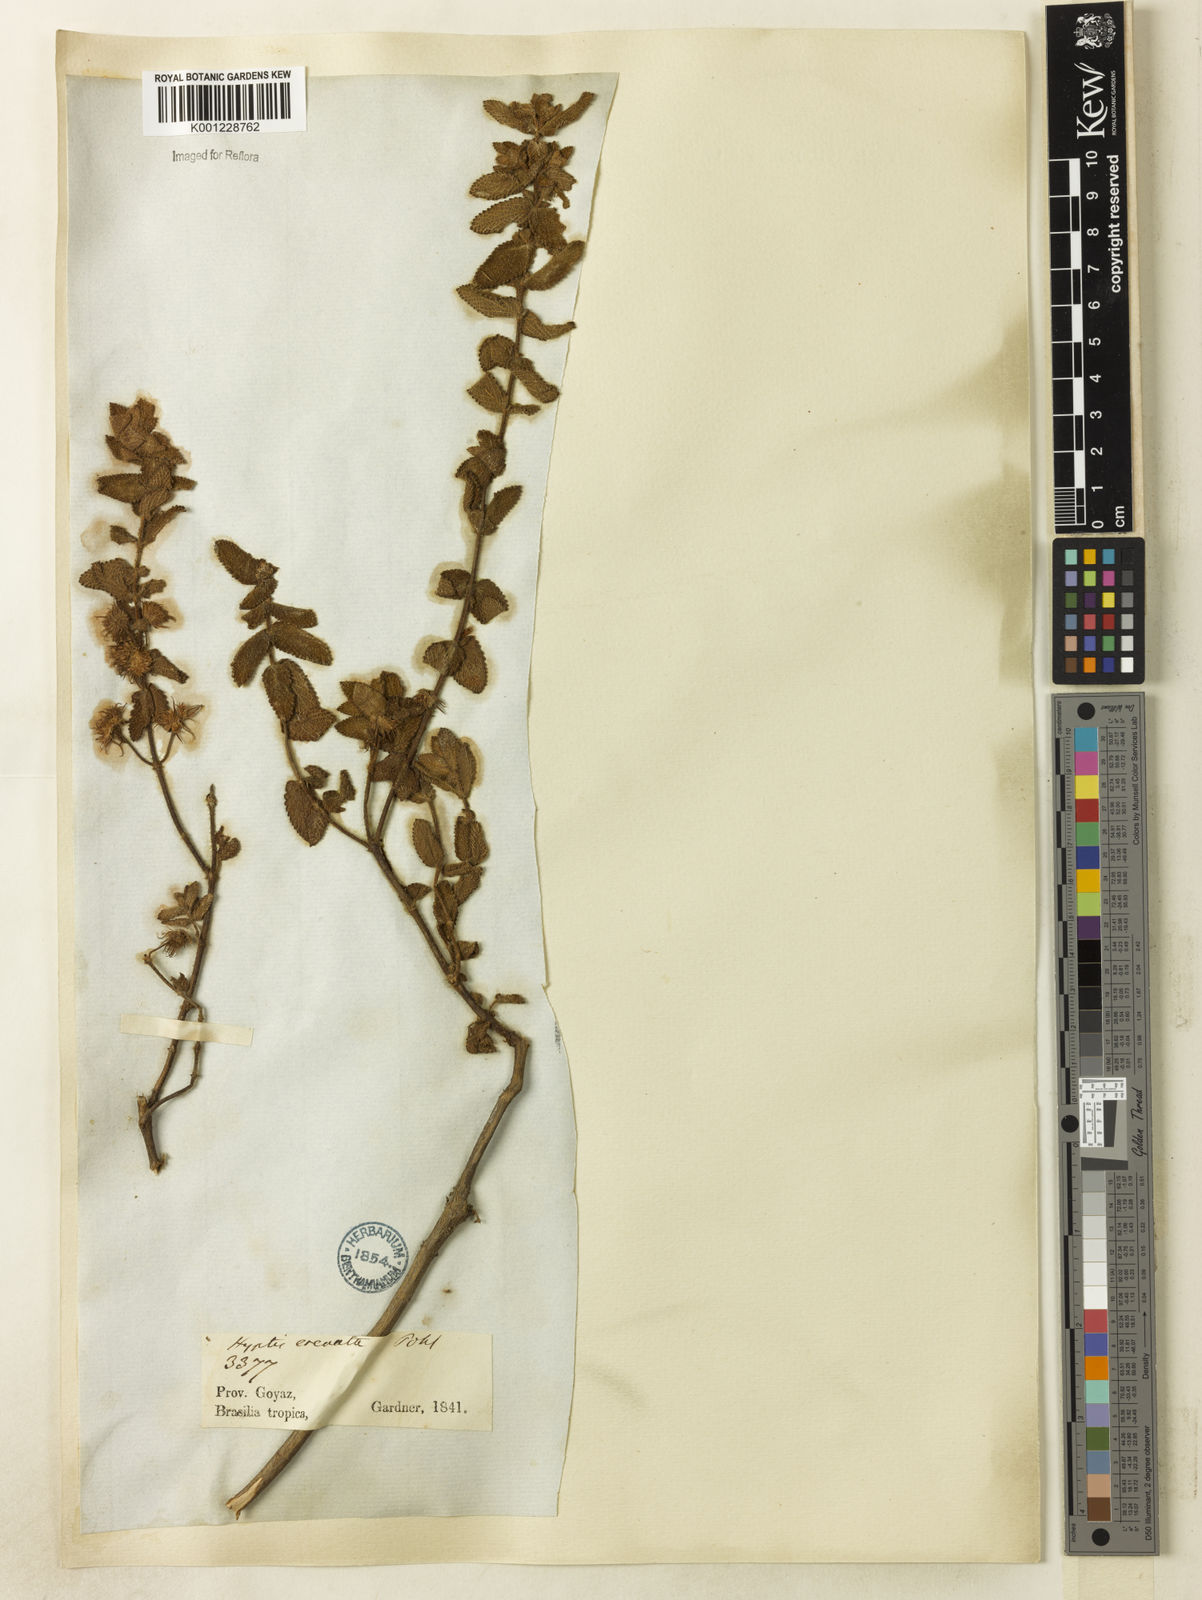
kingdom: Plantae
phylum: Tracheophyta
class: Magnoliopsida
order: Lamiales
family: Lamiaceae
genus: Hyptis
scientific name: Hyptis crenata
